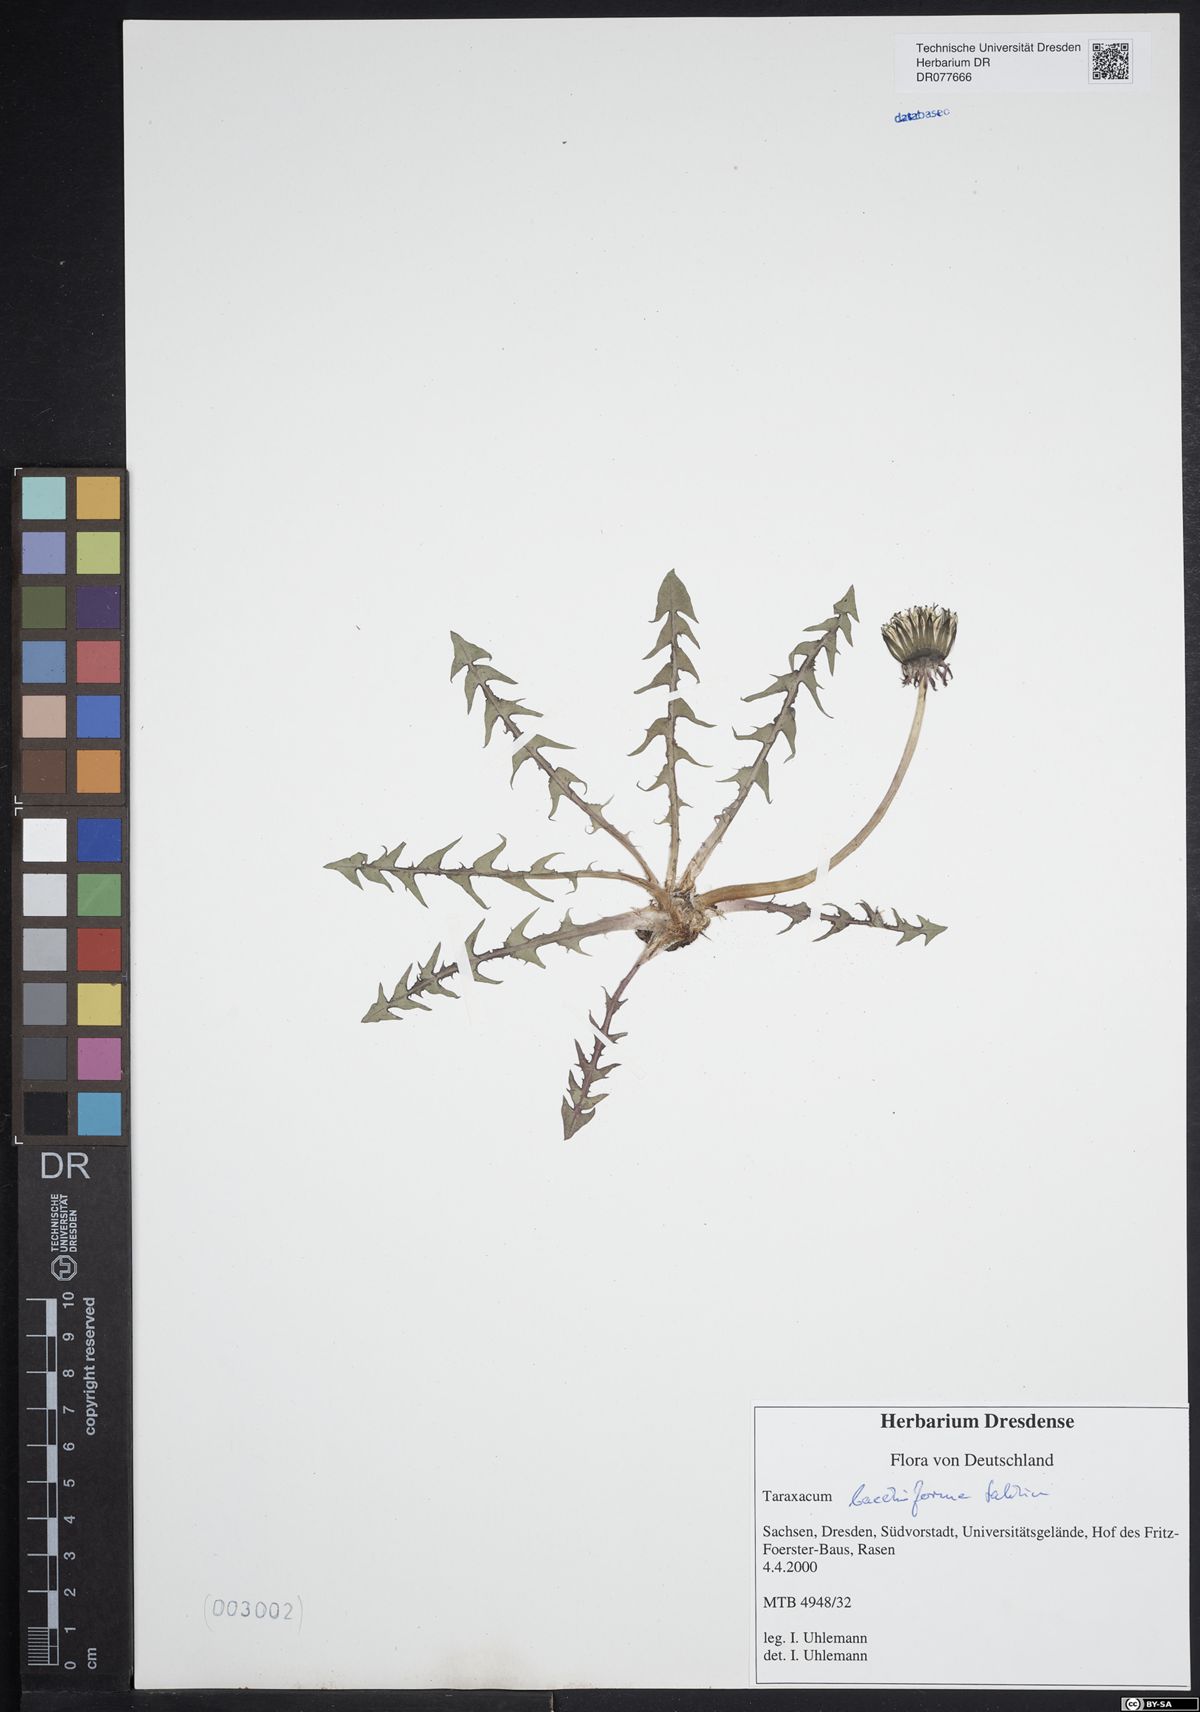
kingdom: Plantae
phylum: Tracheophyta
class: Magnoliopsida
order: Asterales
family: Asteraceae
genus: Taraxacum
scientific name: Taraxacum baeckiiforme
